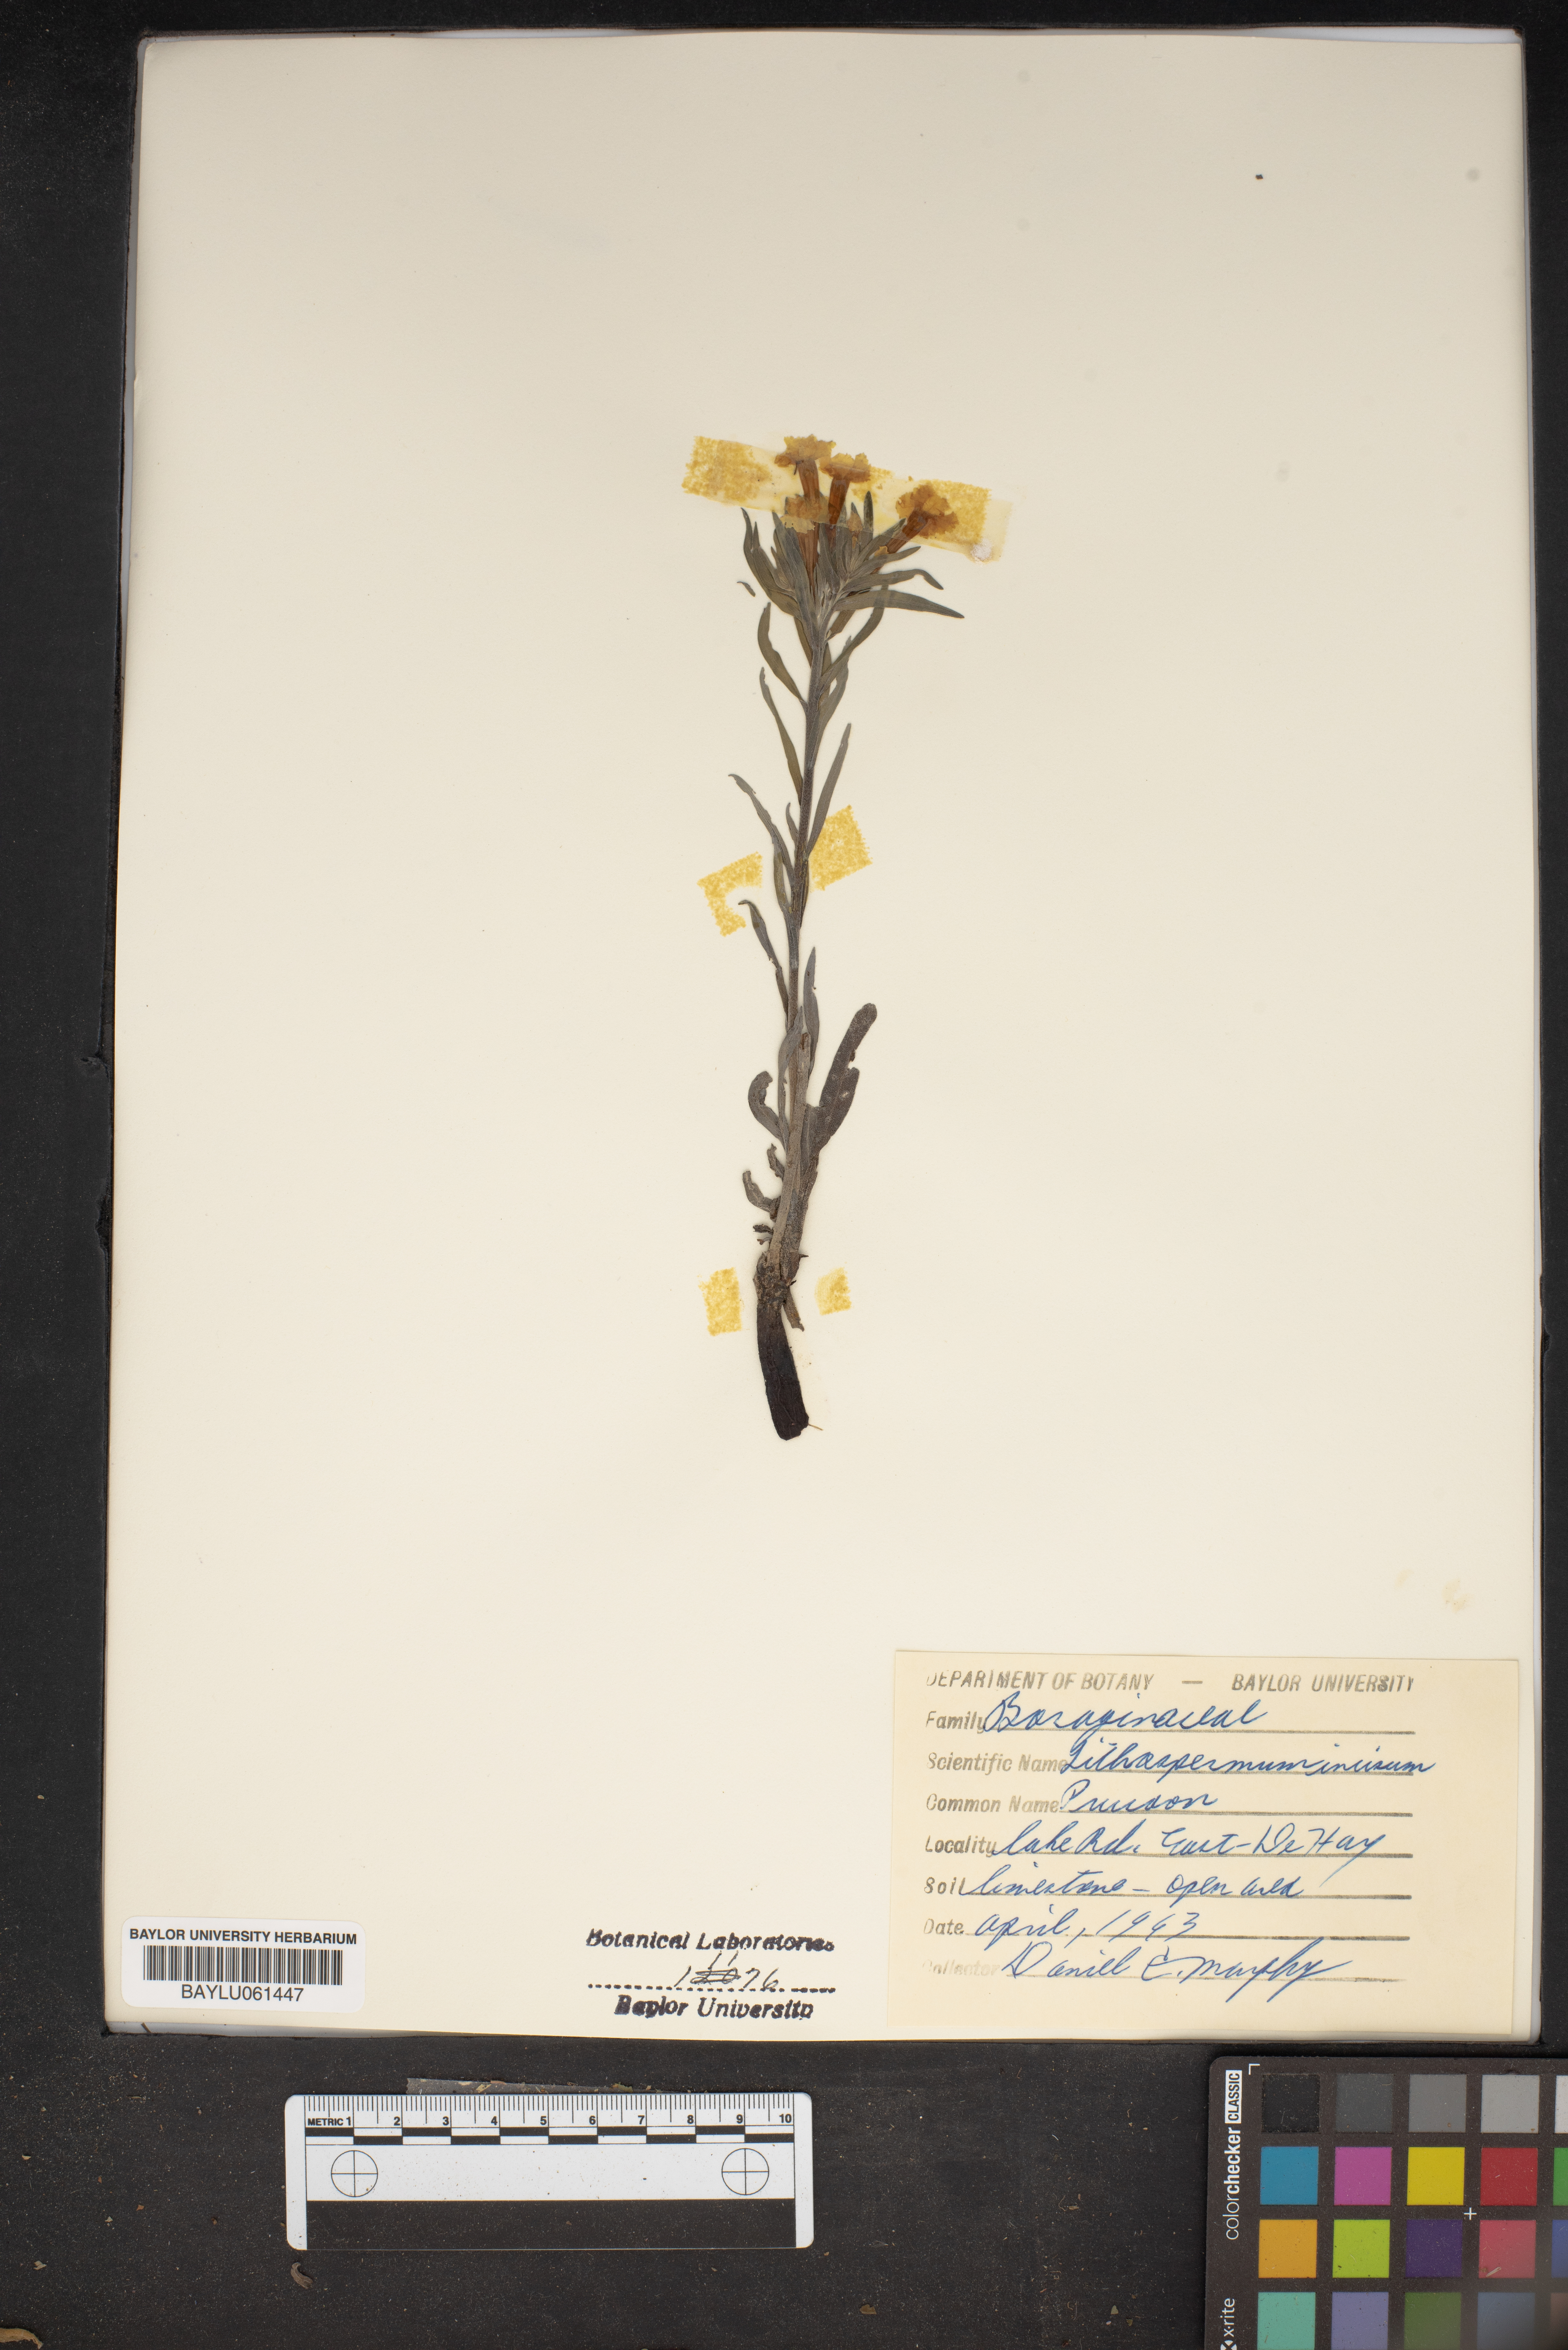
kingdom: Plantae
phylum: Tracheophyta
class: Magnoliopsida
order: Boraginales
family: Boraginaceae
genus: Lithospermum
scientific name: Lithospermum incisum
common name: Fringed gromwell
